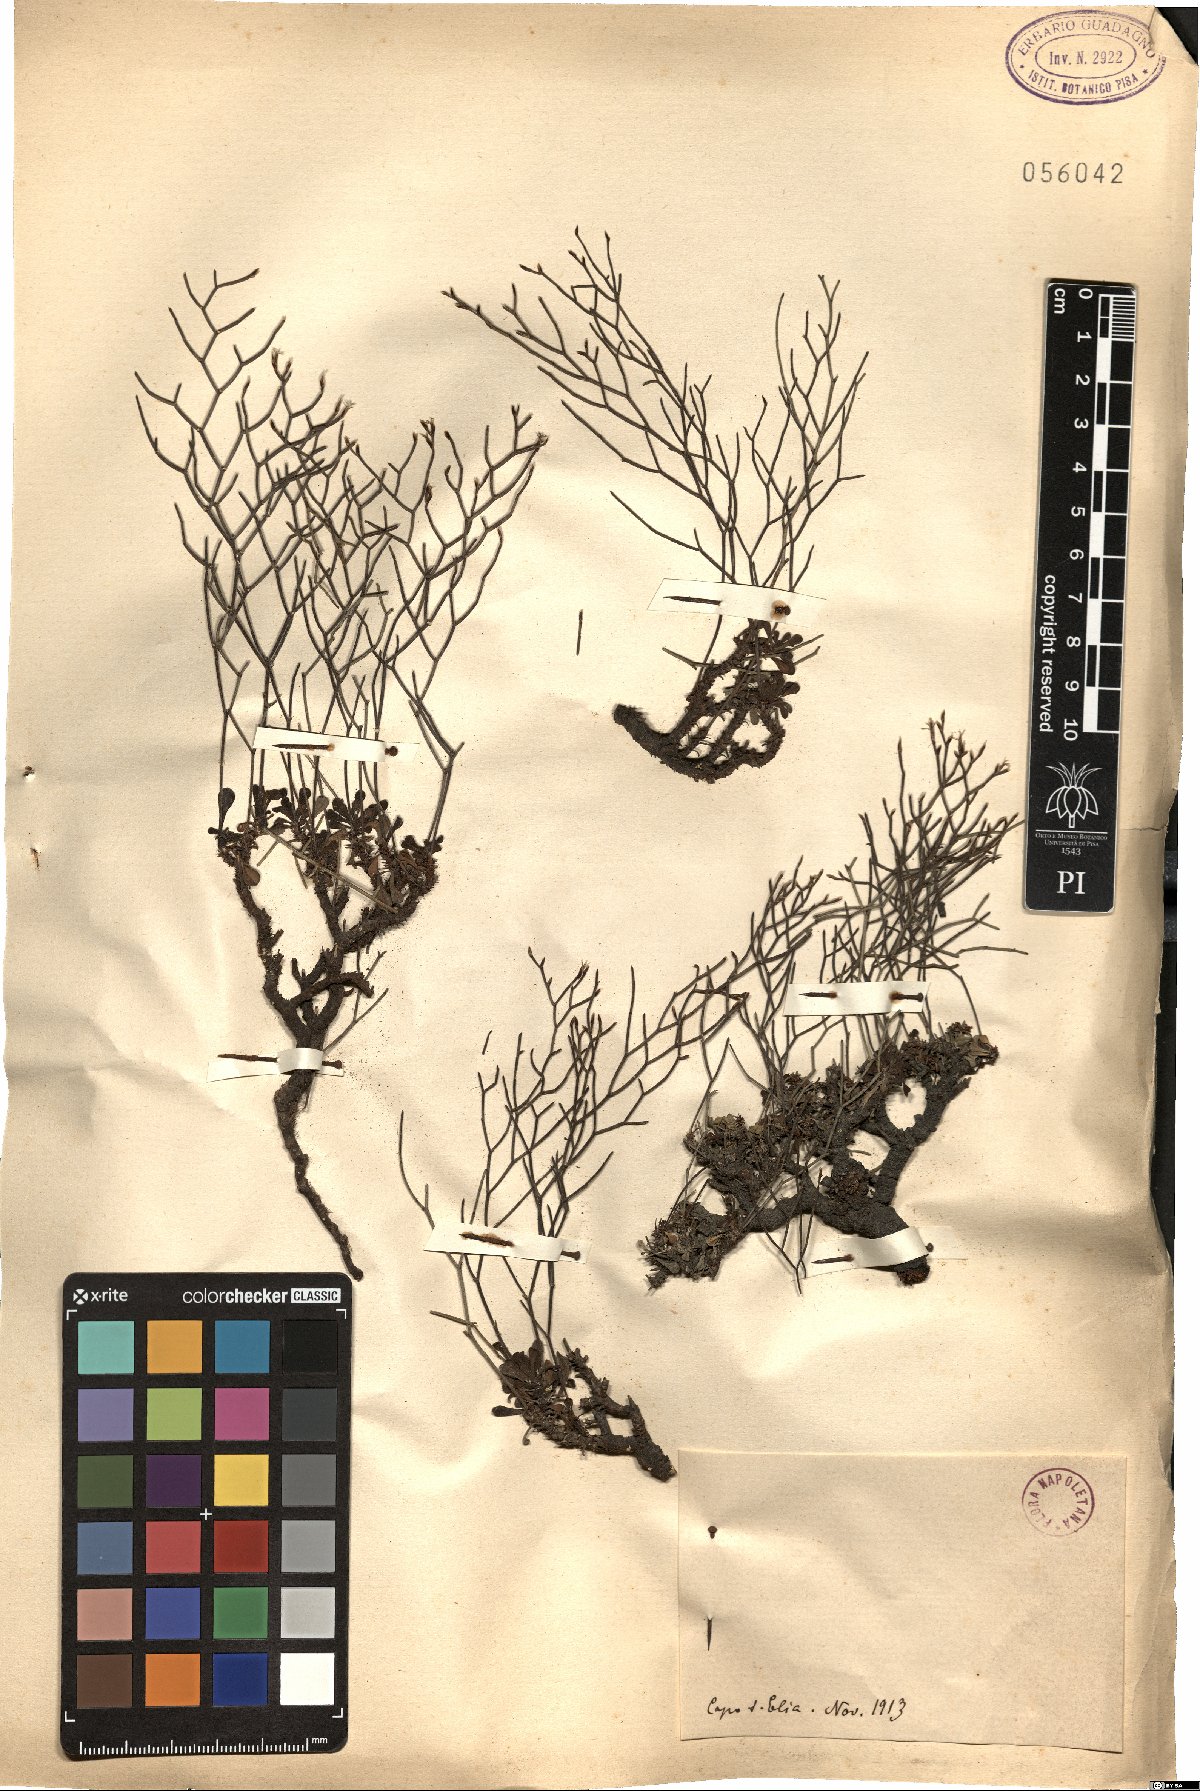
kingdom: Plantae
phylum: Tracheophyta
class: Magnoliopsida
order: Caryophyllales
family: Plumbaginaceae
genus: Armeria
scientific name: Armeria
